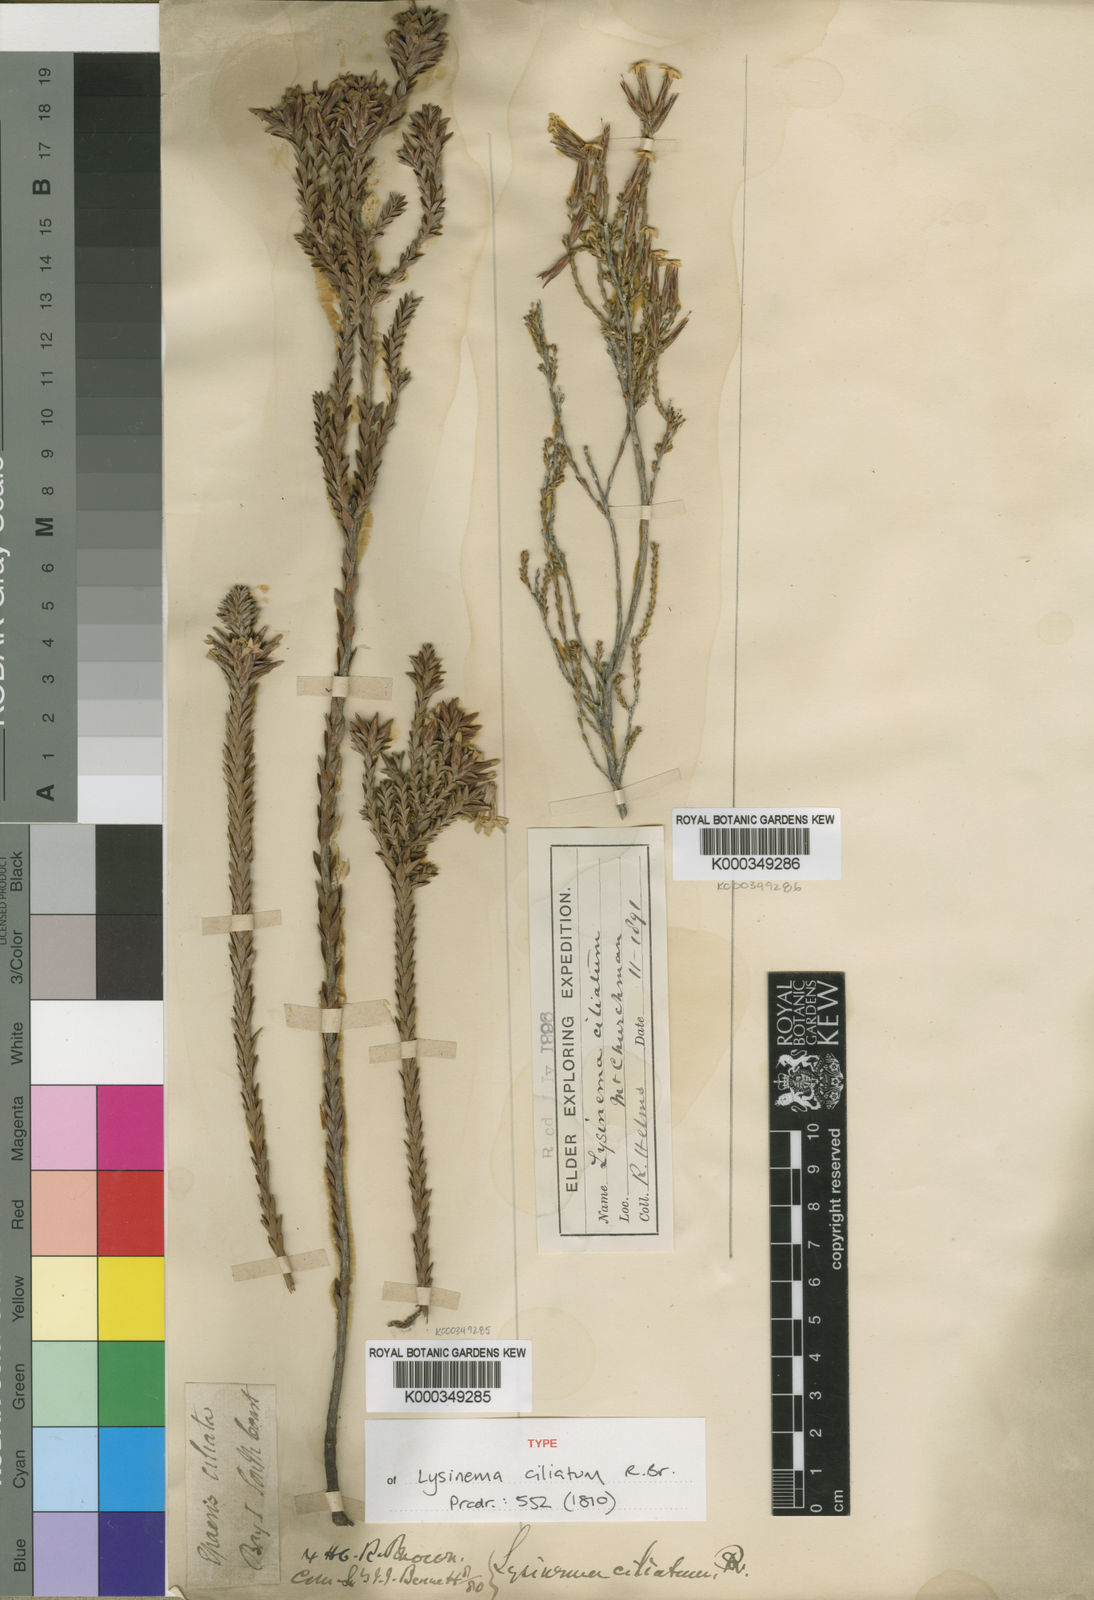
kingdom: Plantae
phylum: Tracheophyta
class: Magnoliopsida
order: Ericales
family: Ericaceae
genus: Lysinema
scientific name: Lysinema ciliatum
